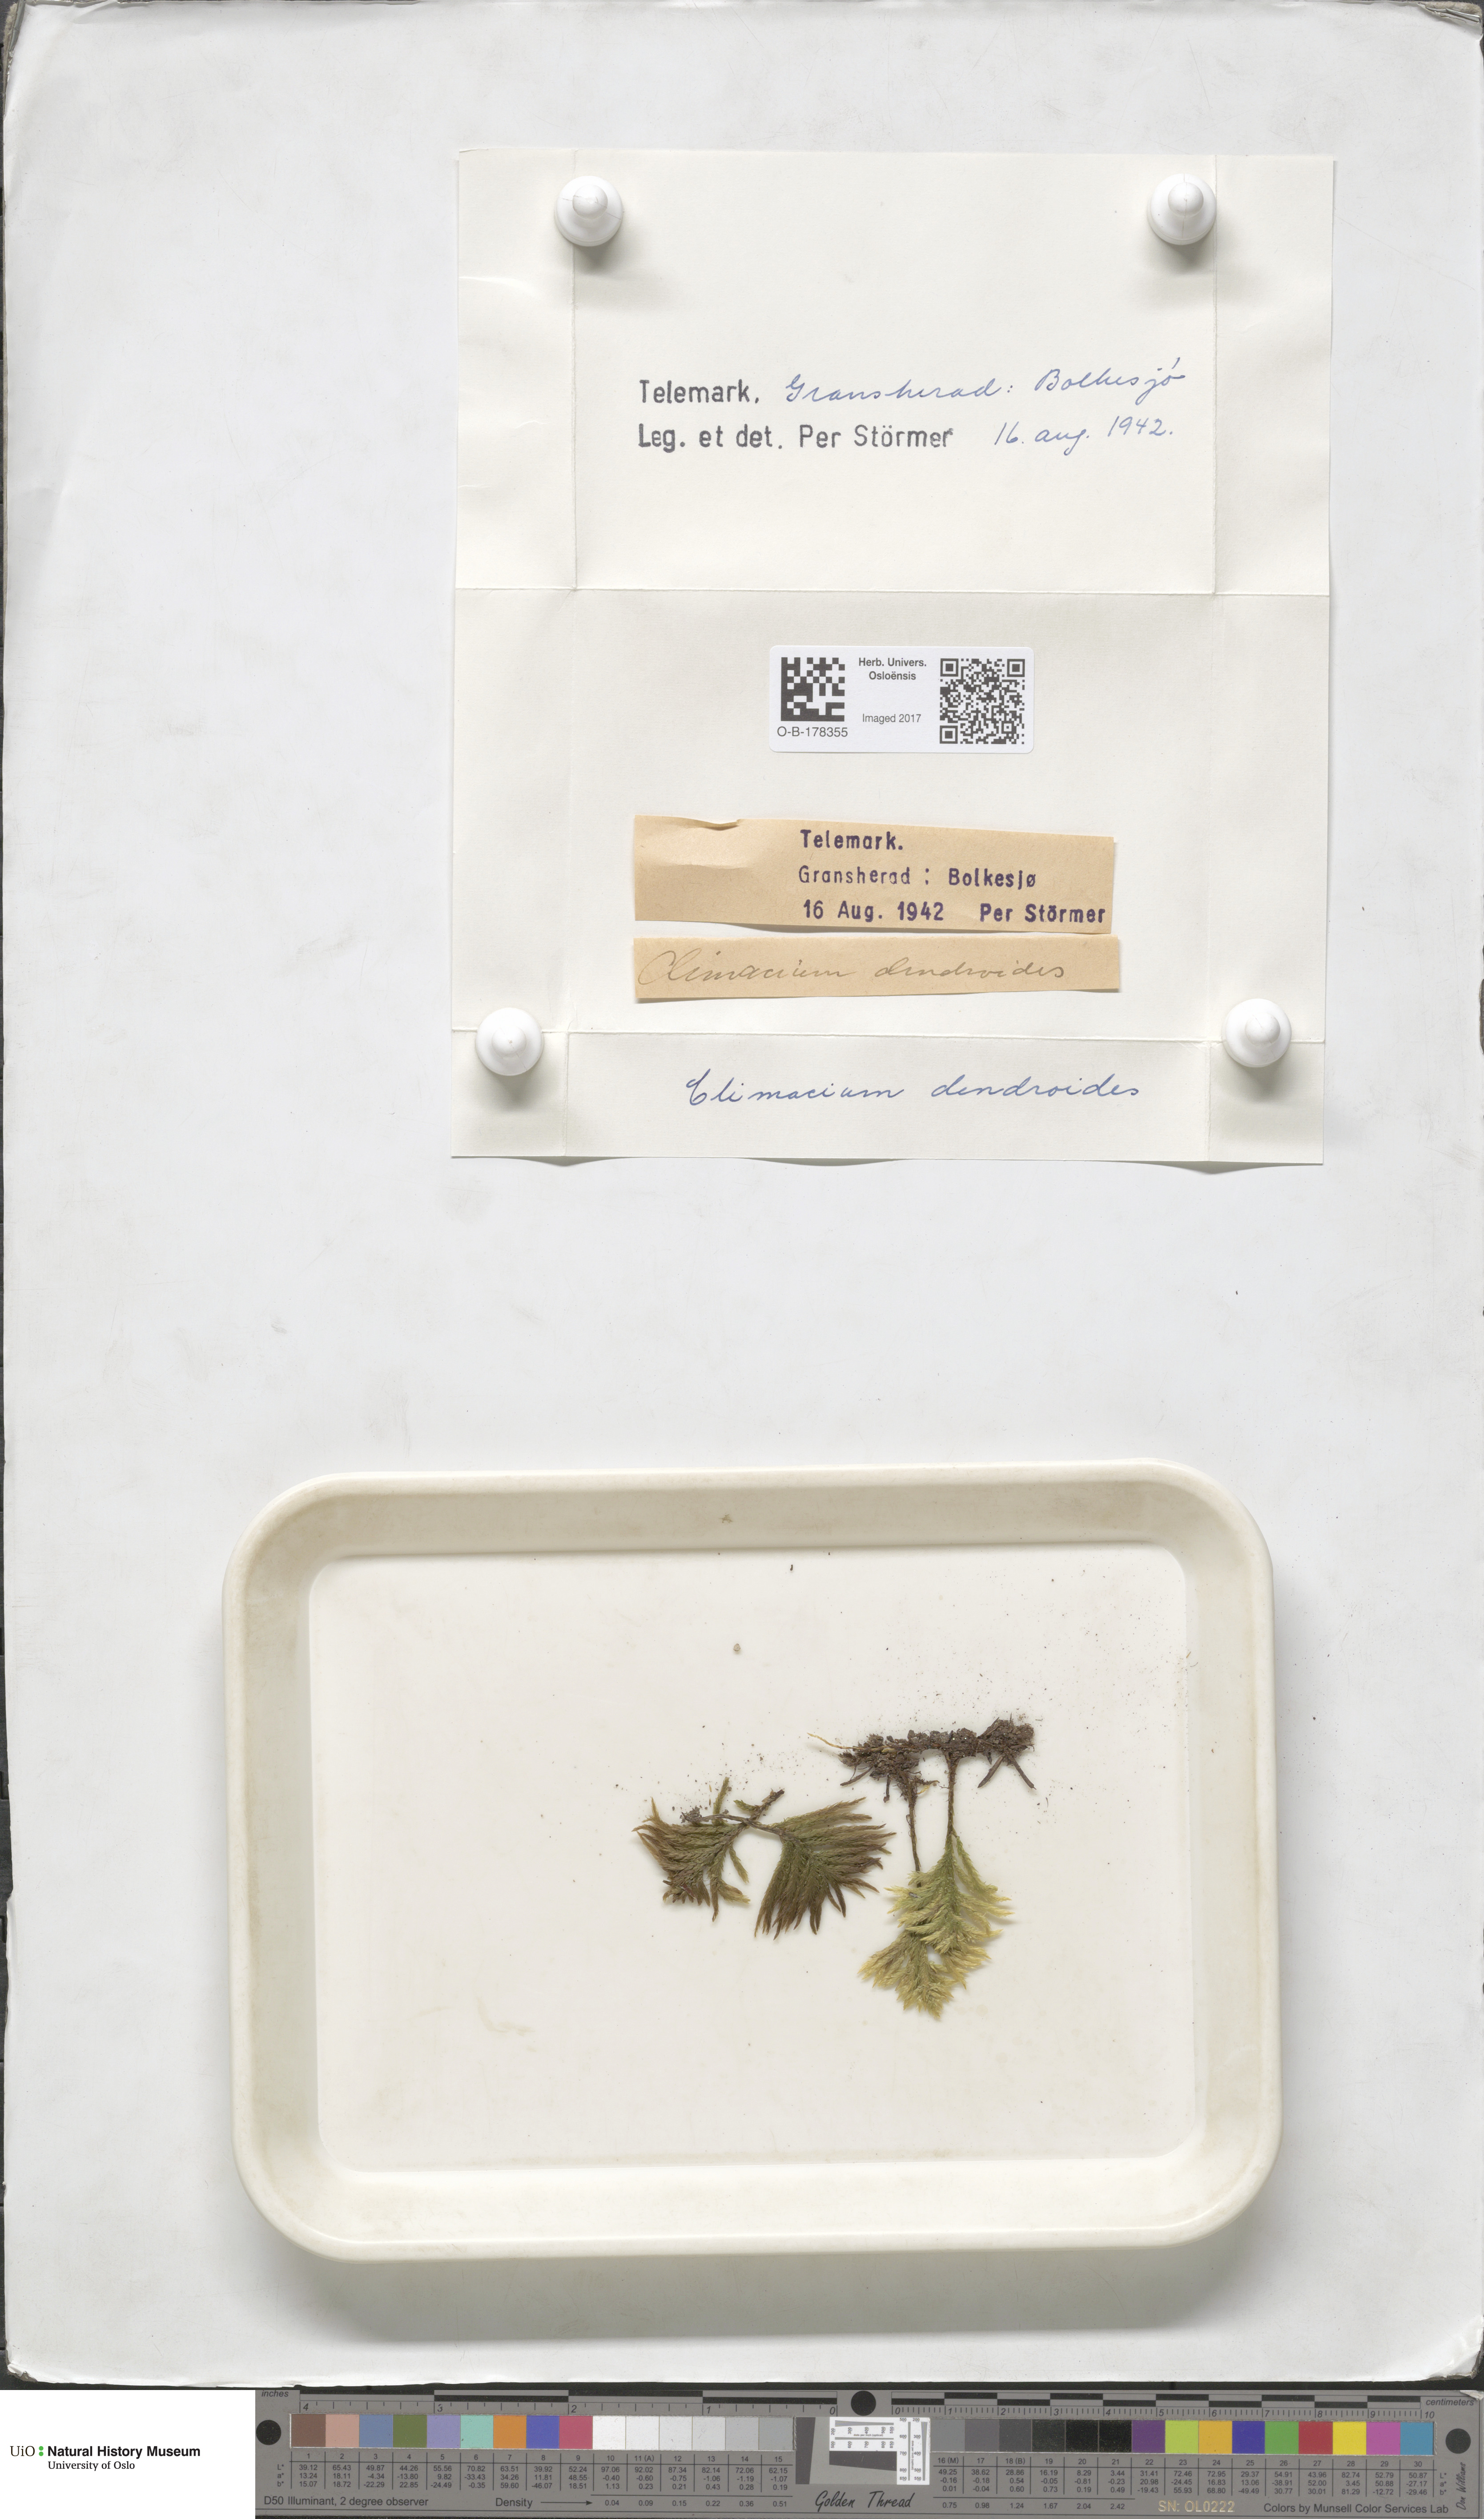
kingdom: Plantae
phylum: Bryophyta
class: Bryopsida
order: Hypnales
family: Climaciaceae
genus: Climacium
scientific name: Climacium dendroides
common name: Northern tree moss
